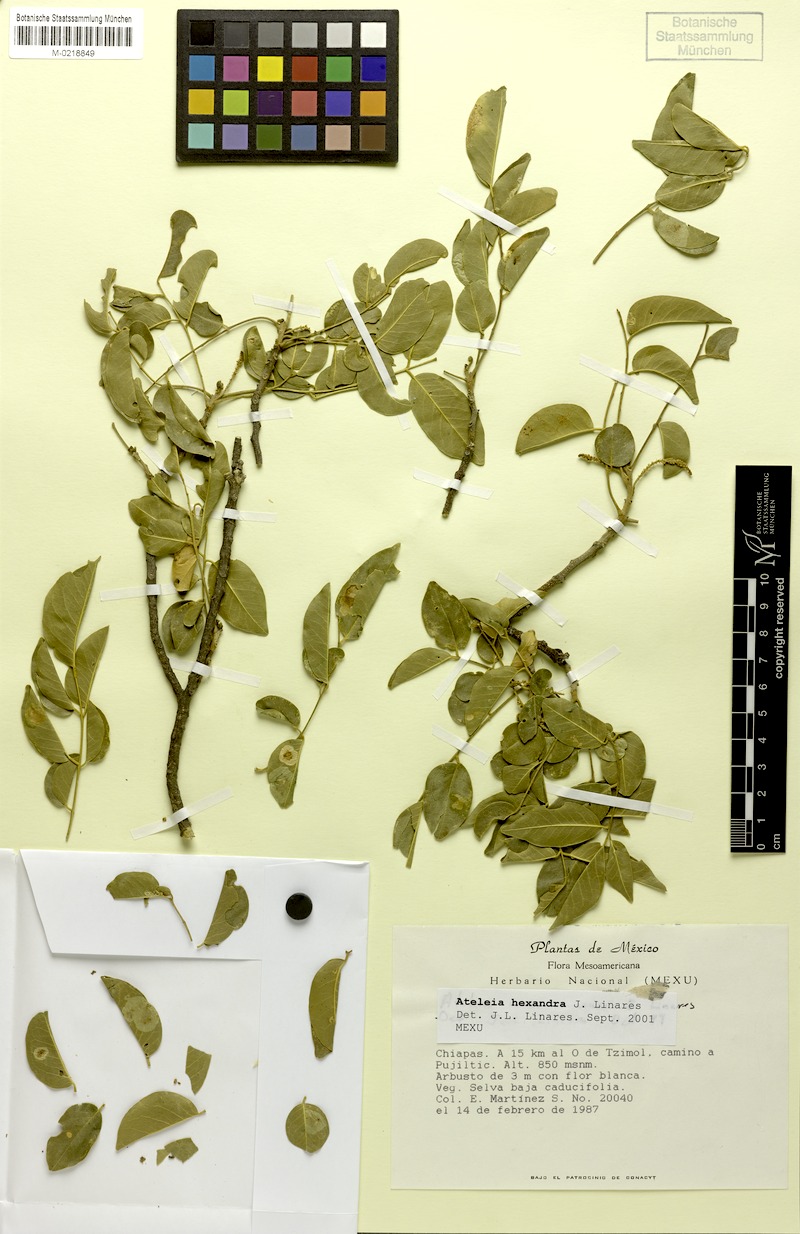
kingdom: Plantae
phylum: Tracheophyta
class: Magnoliopsida
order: Fabales
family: Fabaceae
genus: Ateleia
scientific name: Ateleia hexandra
